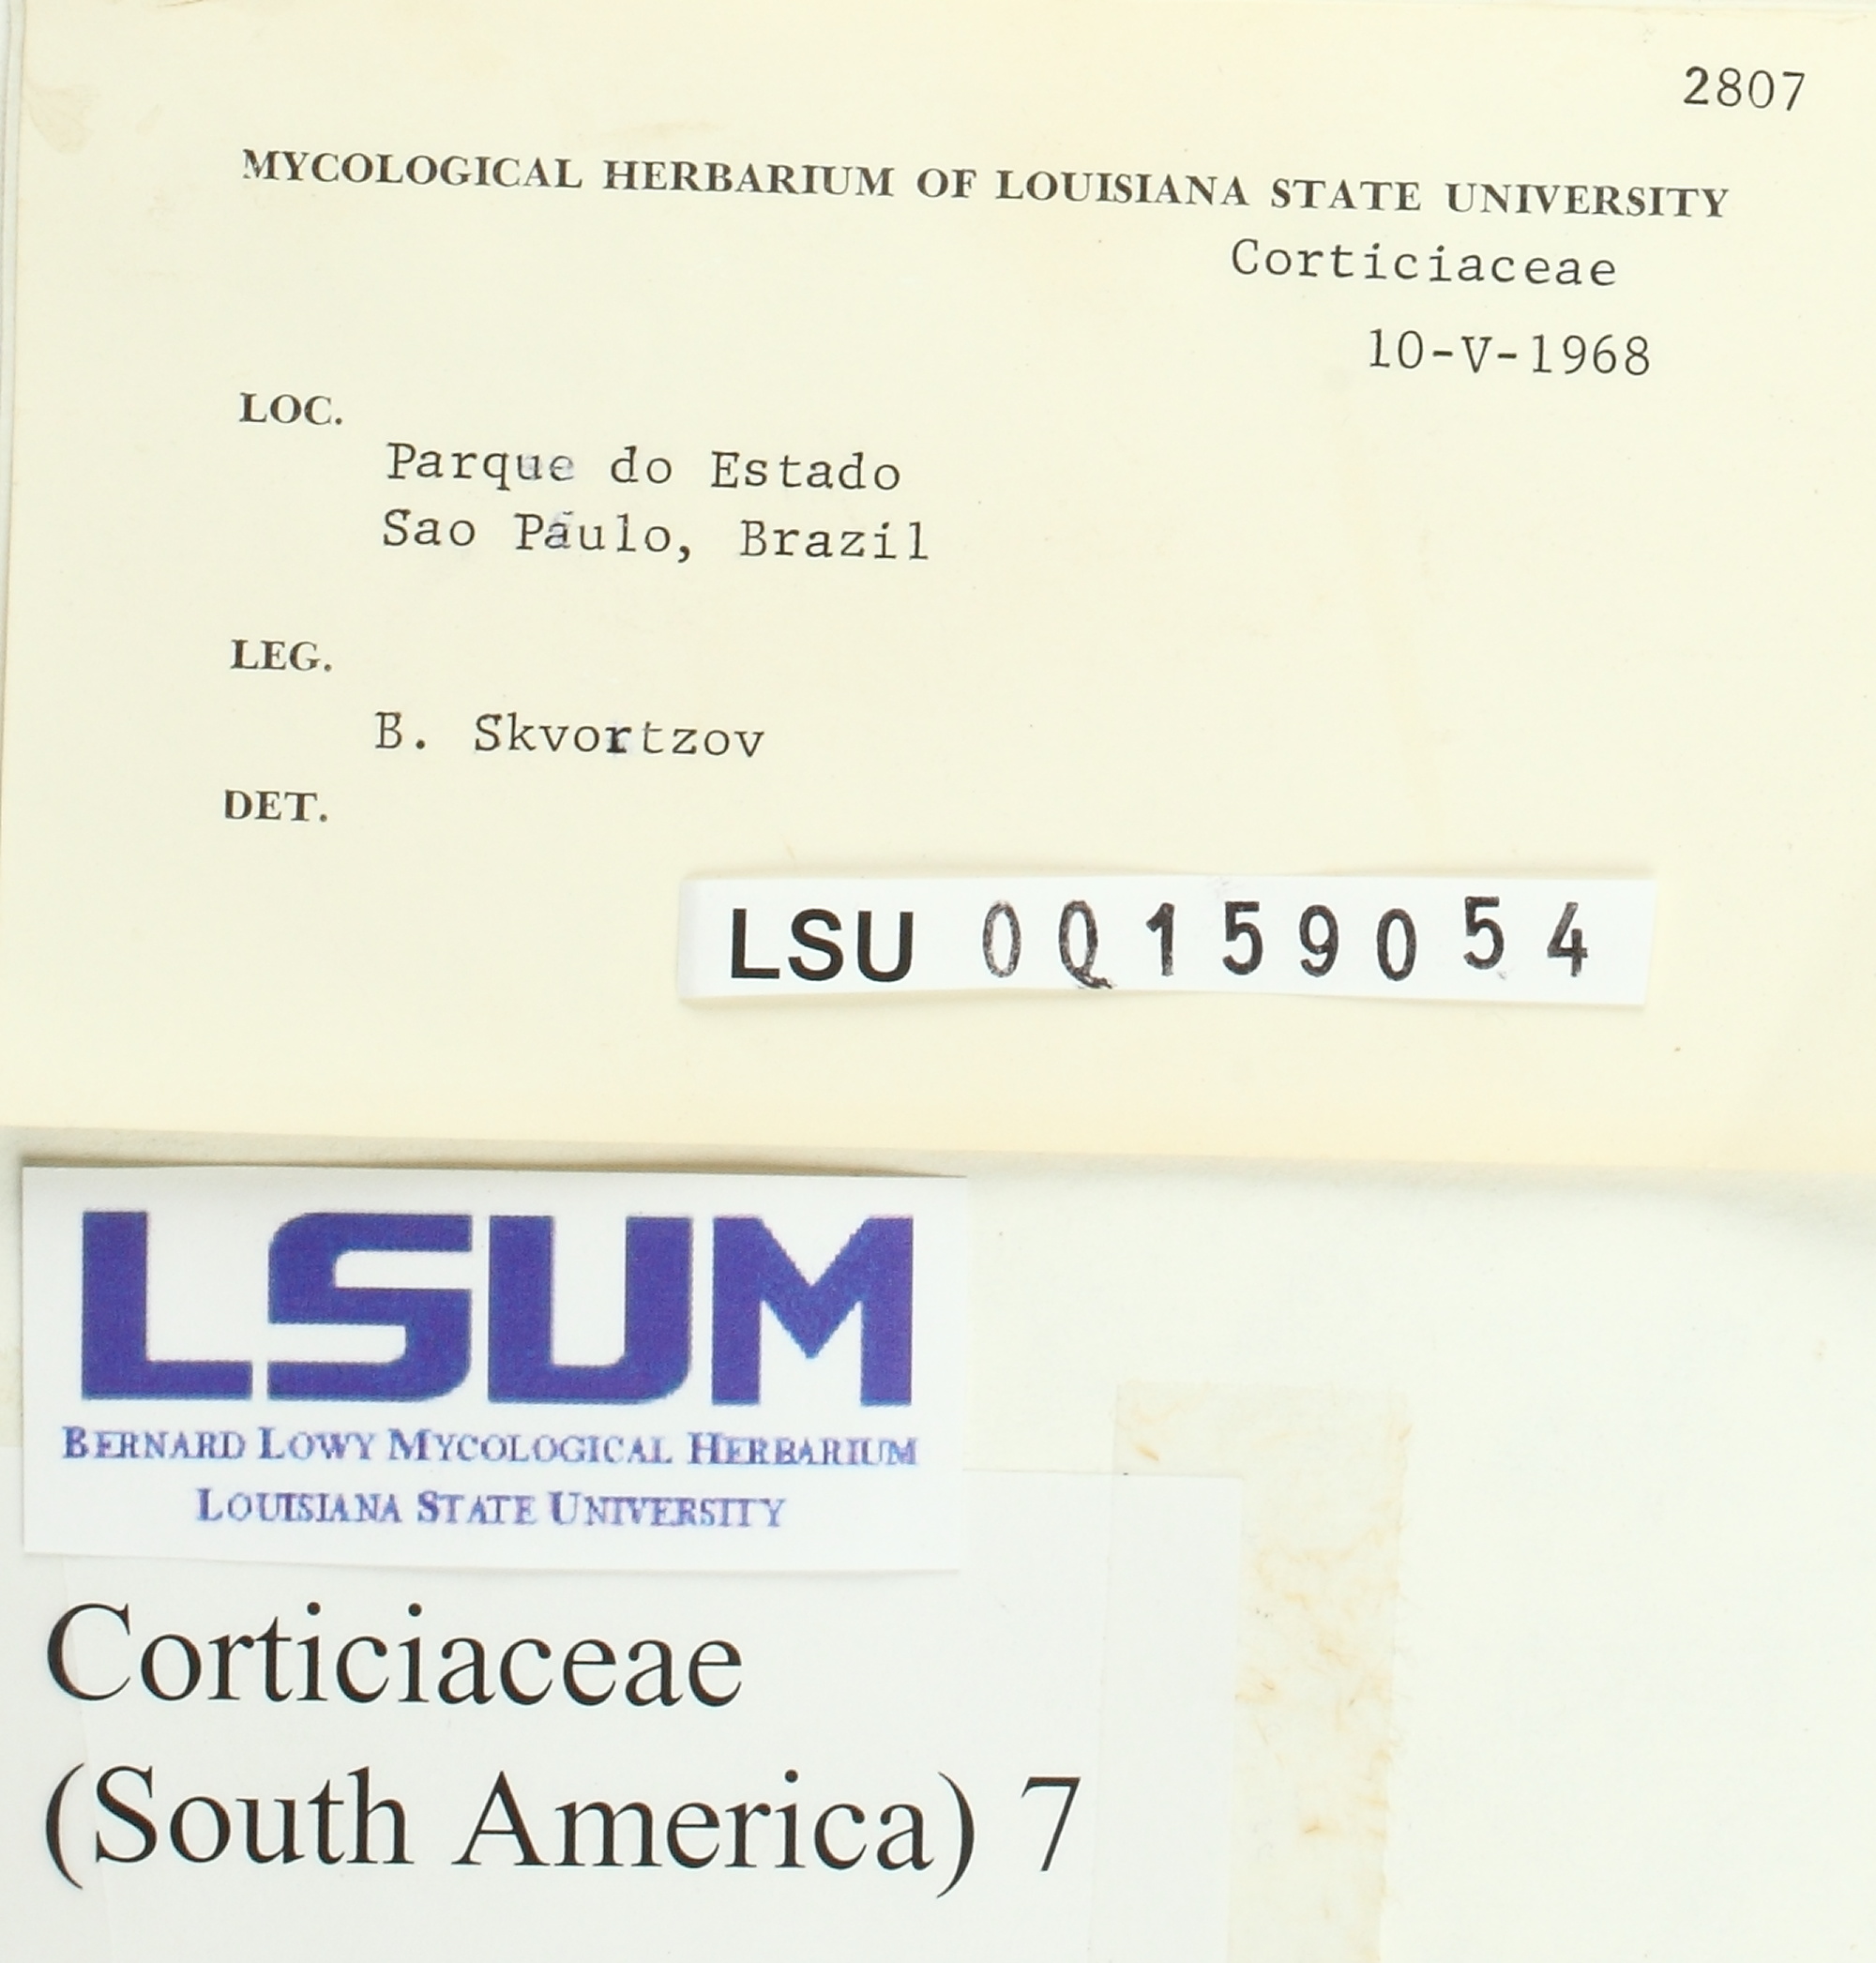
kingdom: Fungi
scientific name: Fungi
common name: Fungi
